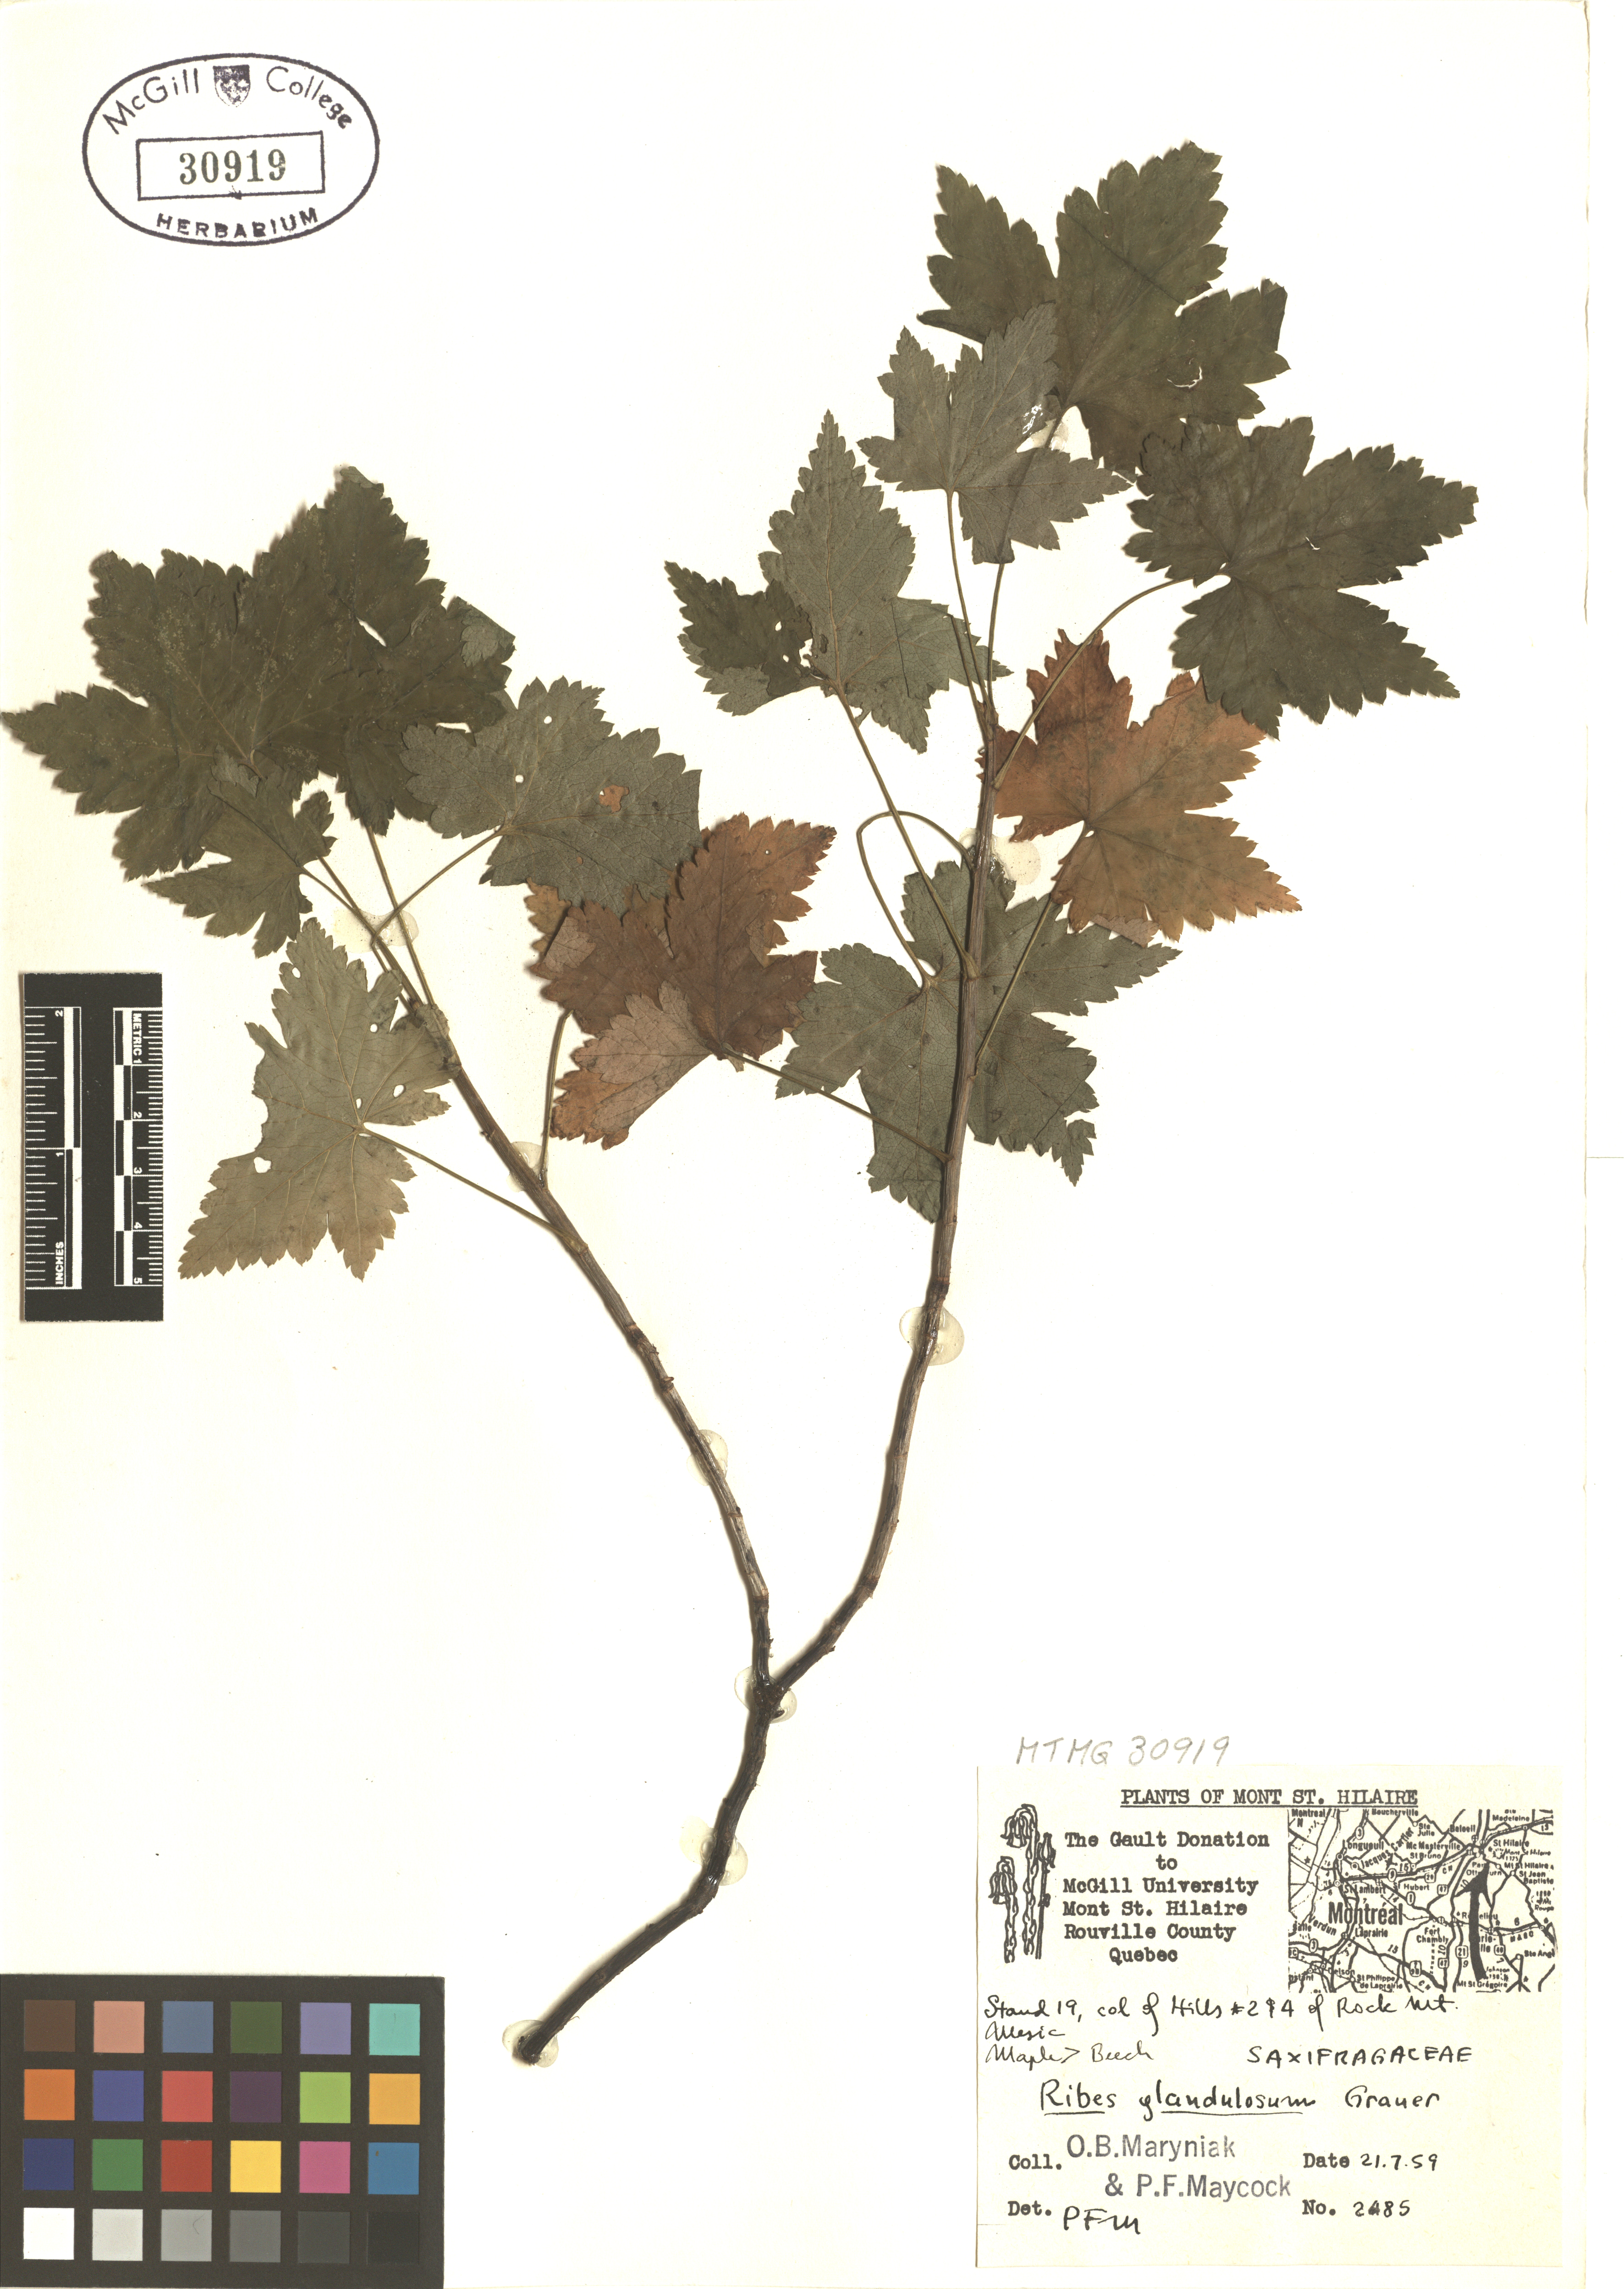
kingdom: Plantae
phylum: Tracheophyta
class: Magnoliopsida
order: Saxifragales
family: Grossulariaceae
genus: Ribes
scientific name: Ribes glandulosum
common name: Skunk currant
